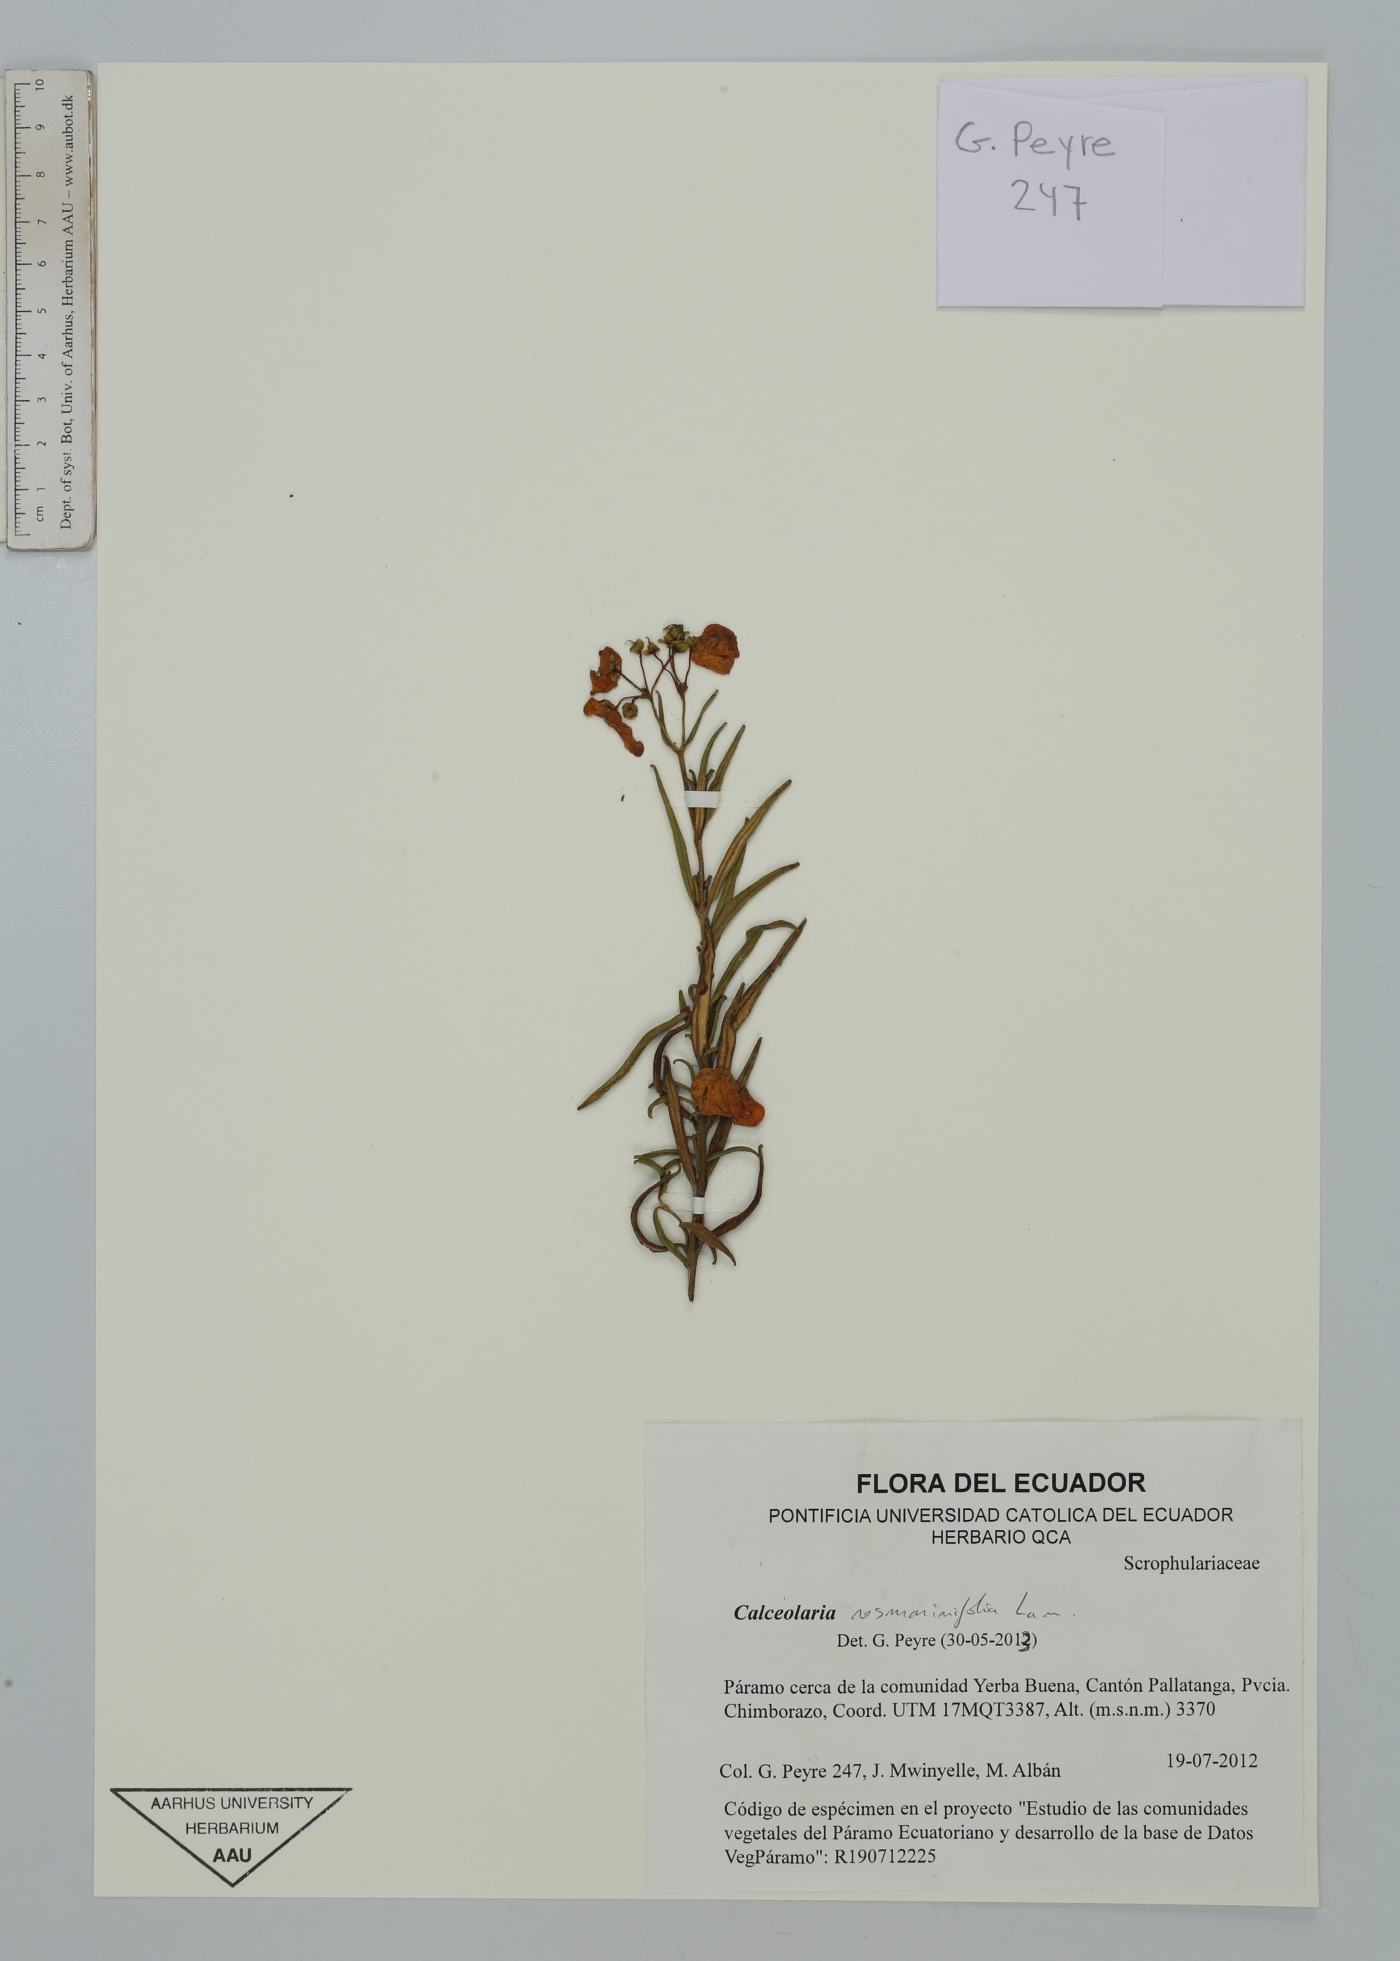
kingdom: Plantae
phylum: Tracheophyta
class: Magnoliopsida
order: Lamiales
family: Calceolariaceae
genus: Calceolaria
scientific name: Calceolaria rosmarinifolia
